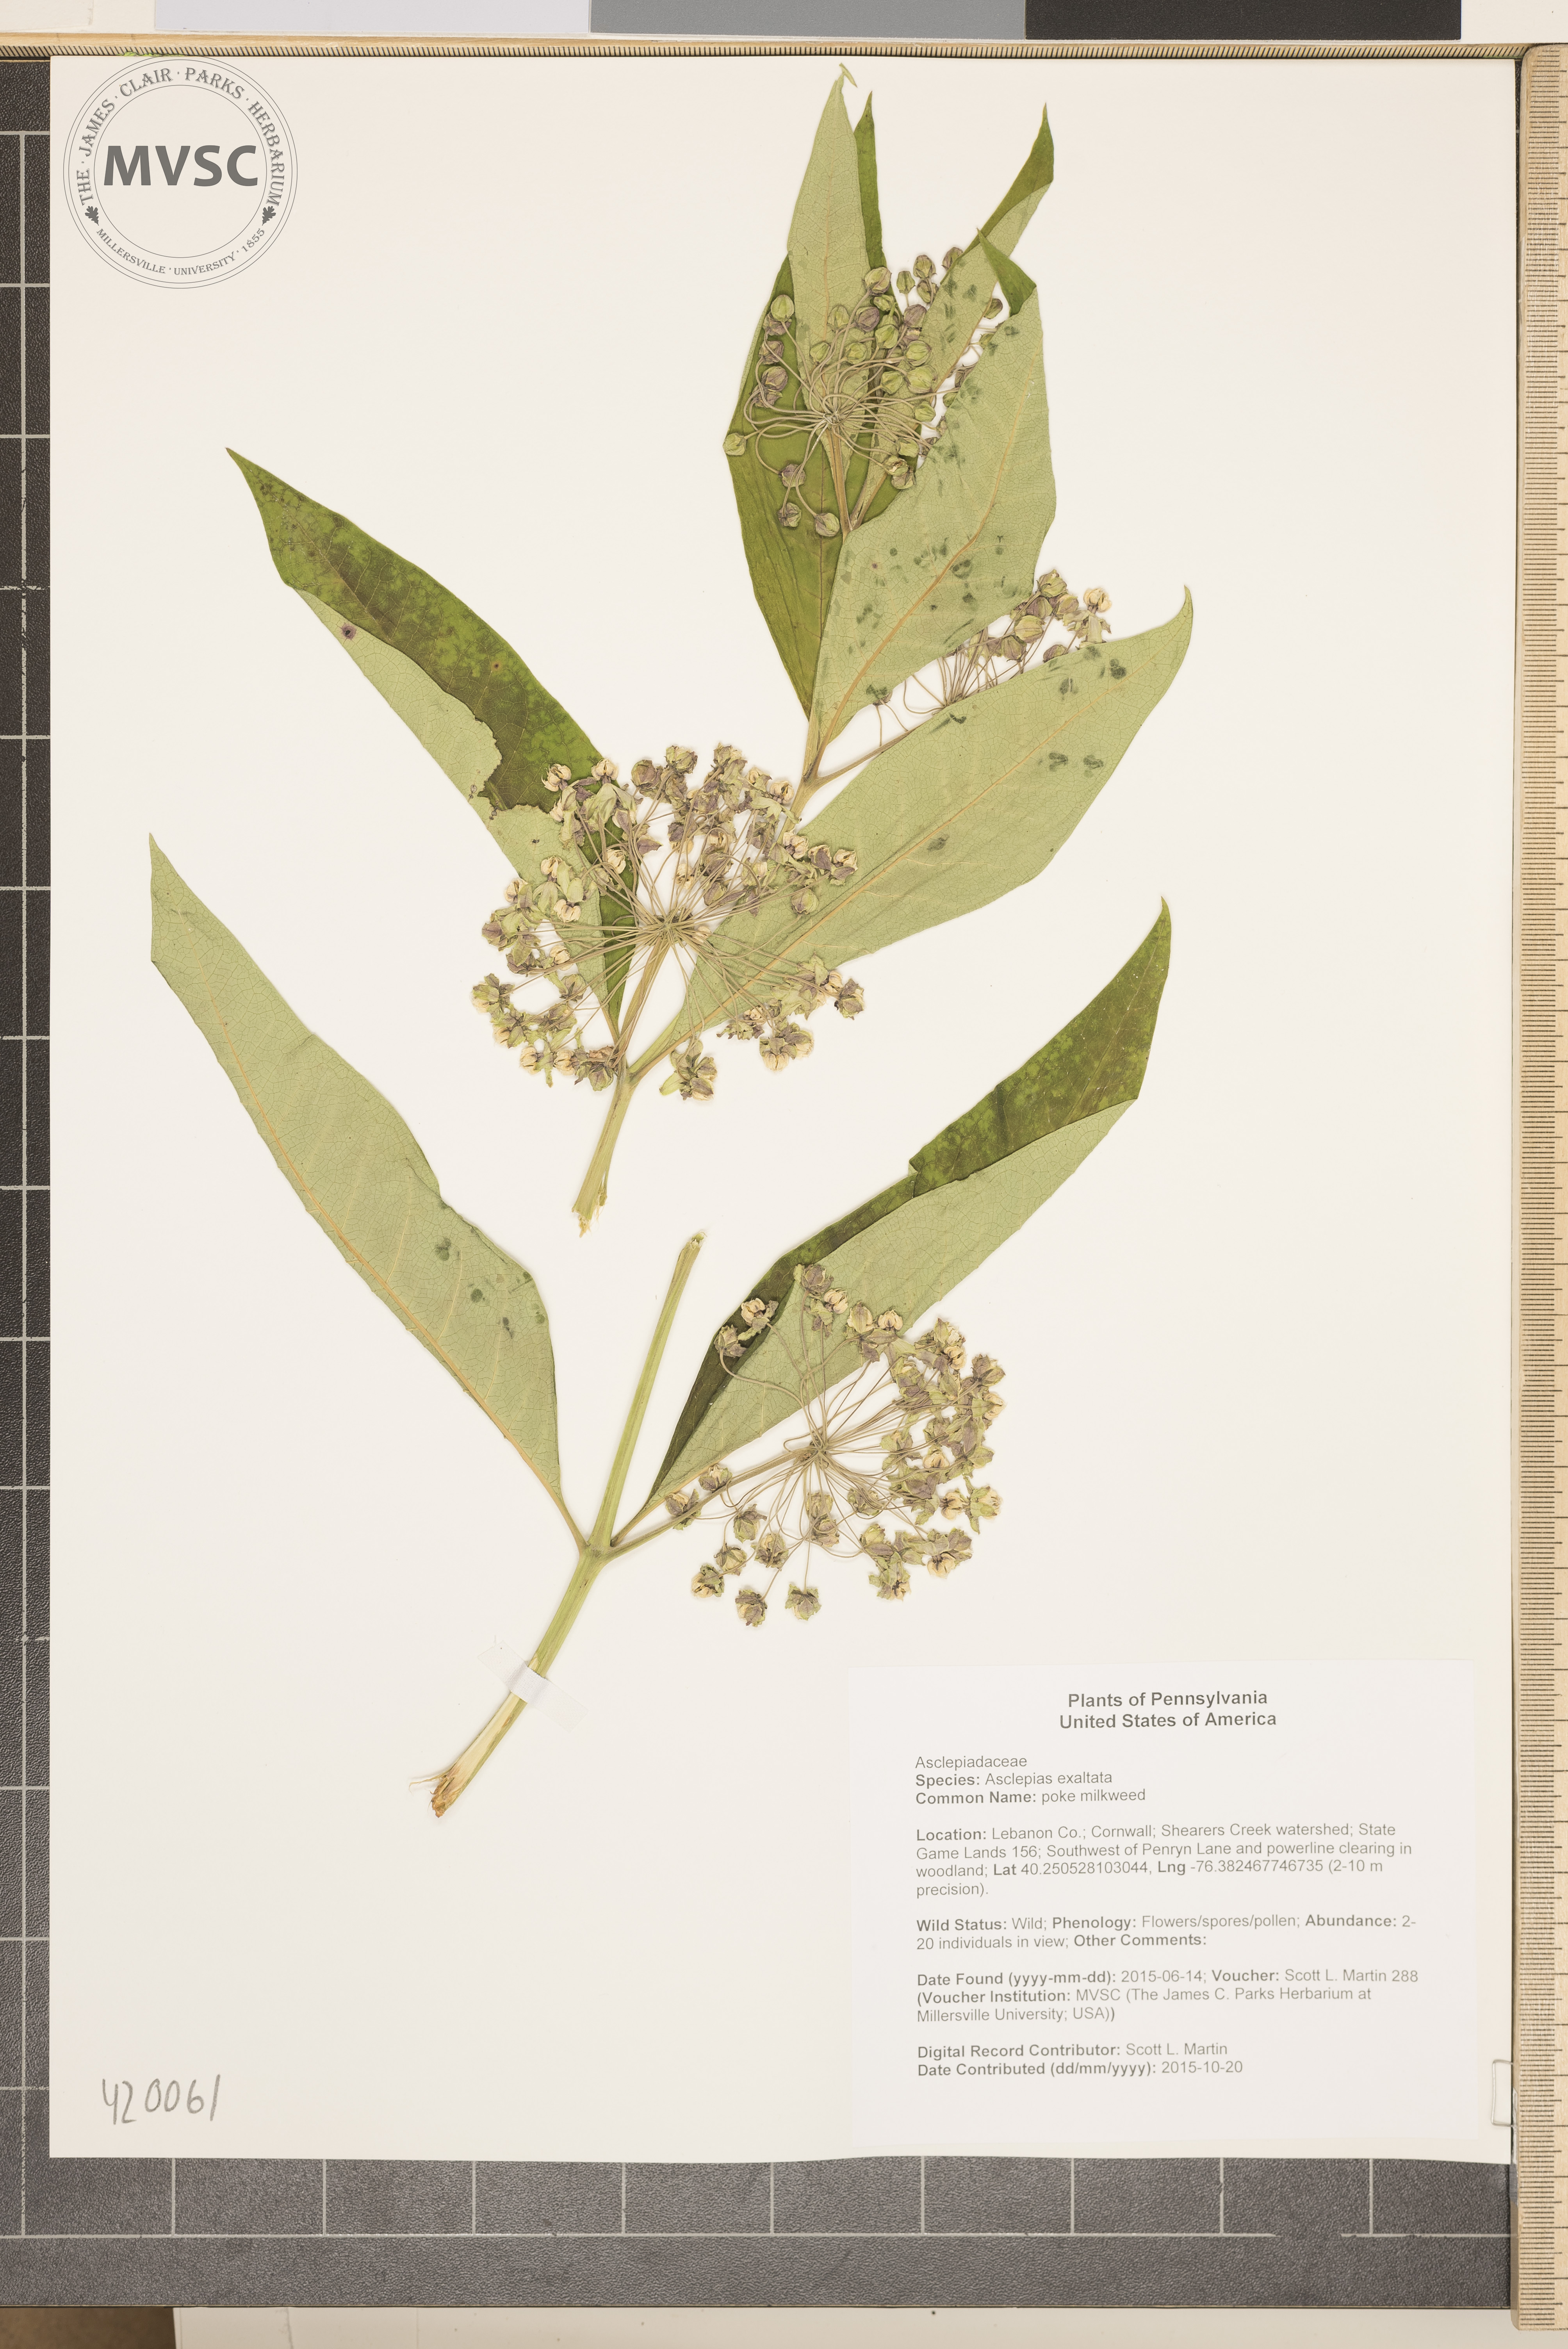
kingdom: Plantae
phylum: Tracheophyta
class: Magnoliopsida
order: Gentianales
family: Apocynaceae
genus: Asclepias
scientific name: Asclepias exaltata
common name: poke milkweed
